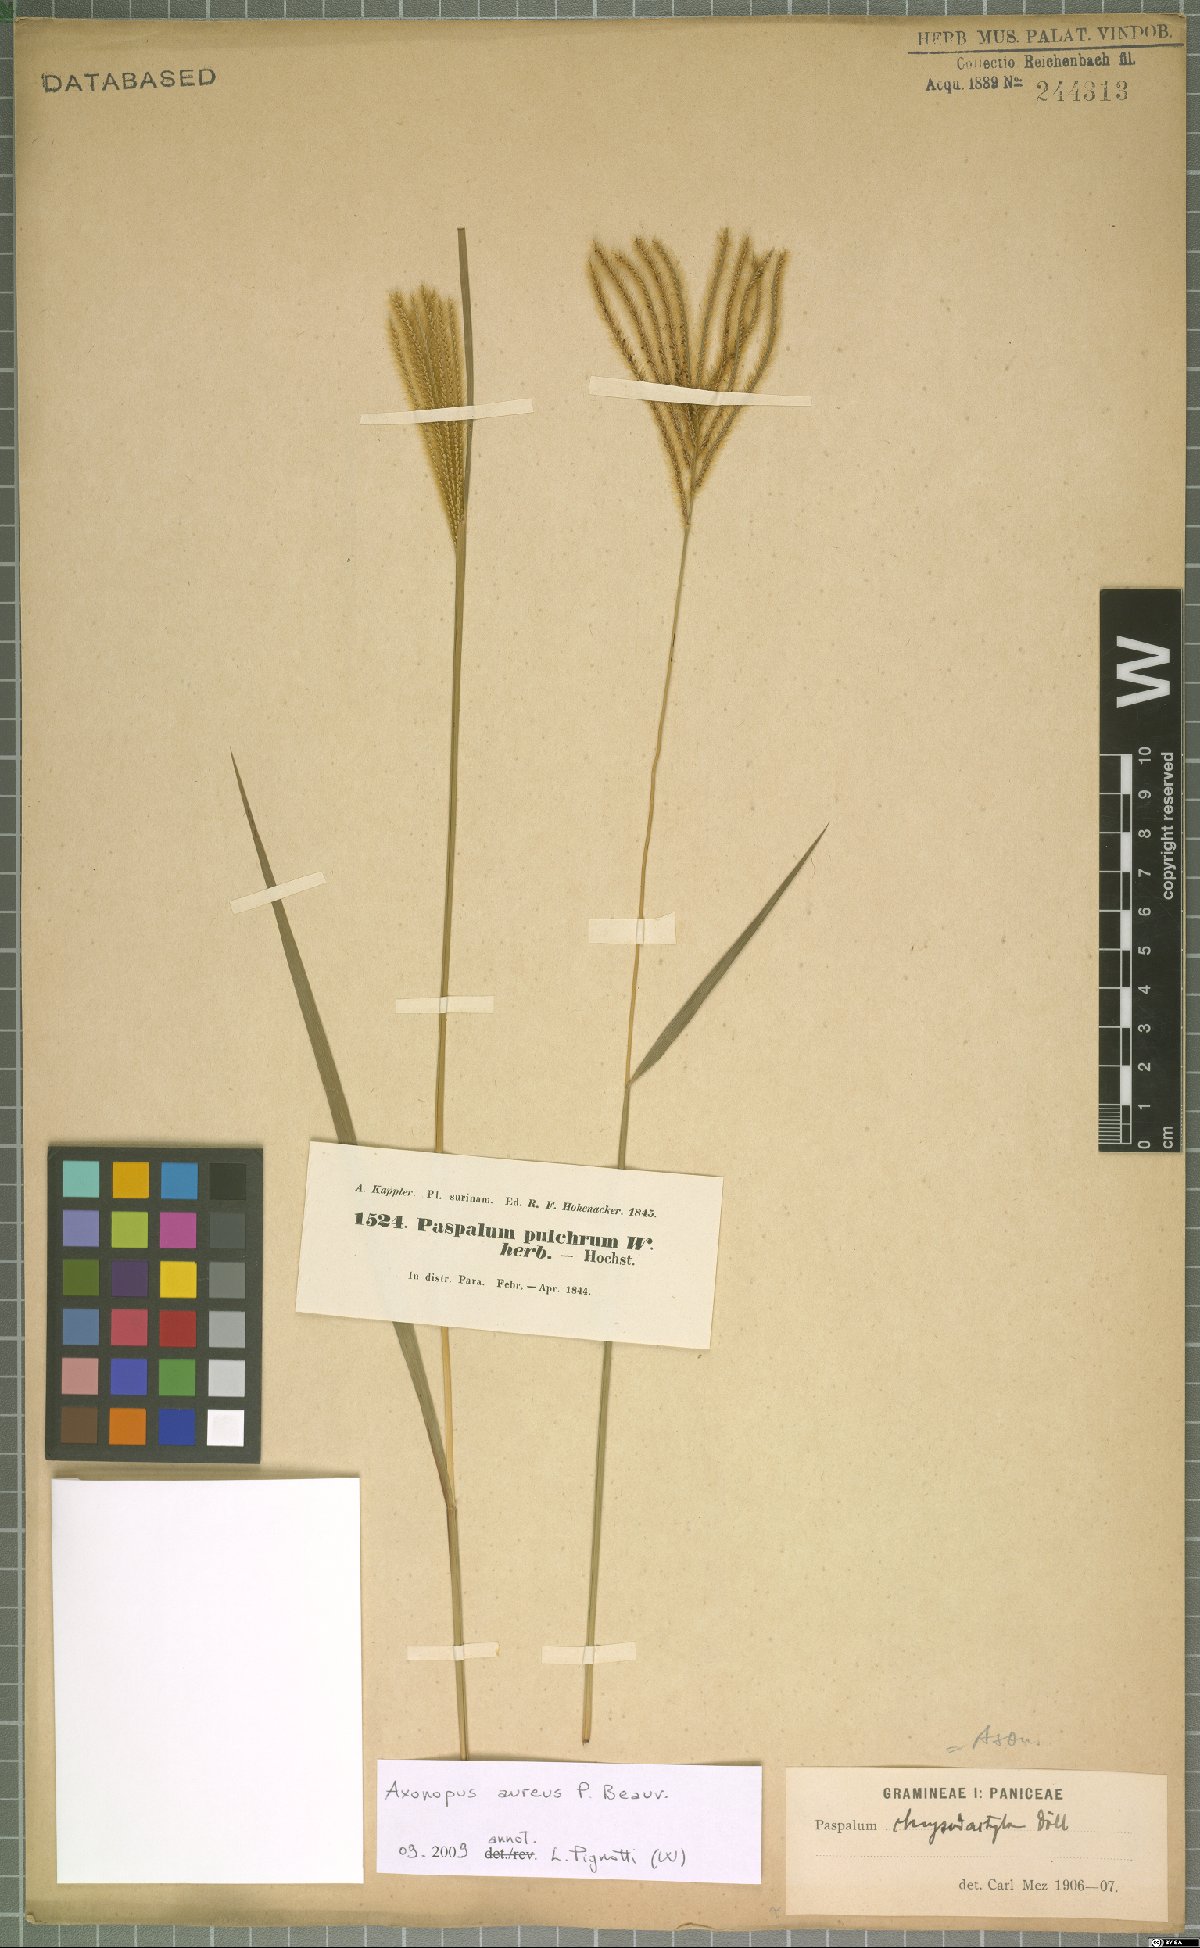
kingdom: Plantae
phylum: Tracheophyta
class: Liliopsida
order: Poales
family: Poaceae
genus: Axonopus
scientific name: Axonopus aureus
